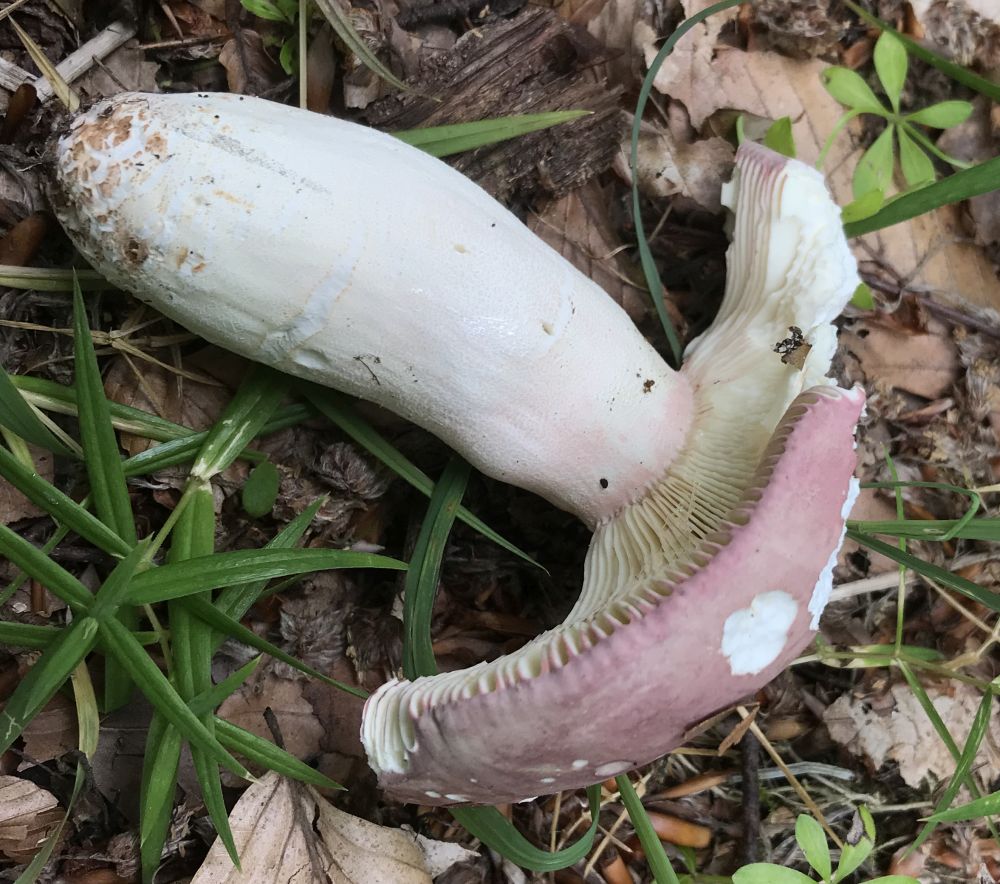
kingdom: Fungi
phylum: Basidiomycota
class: Agaricomycetes
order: Russulales
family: Russulaceae
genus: Russula
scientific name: Russula olivacea
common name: stor skørhat
